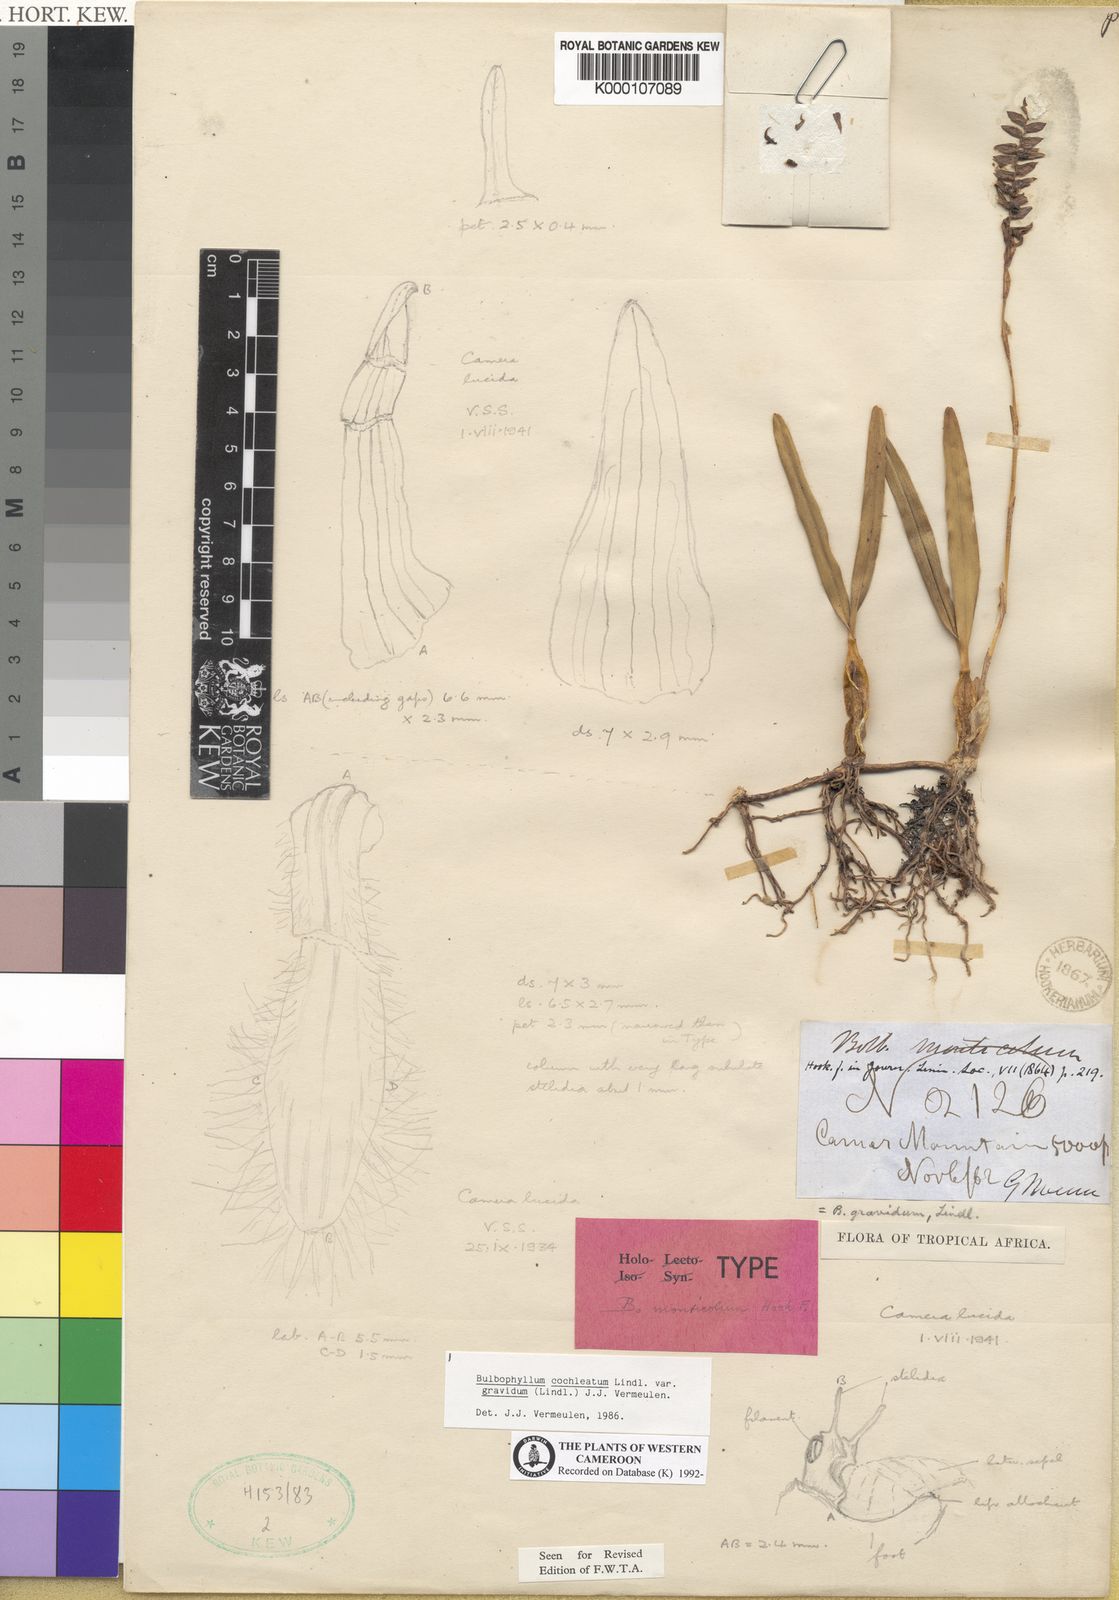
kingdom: Plantae
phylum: Tracheophyta
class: Liliopsida
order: Asparagales
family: Orchidaceae
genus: Bulbophyllum
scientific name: Bulbophyllum gravidum
